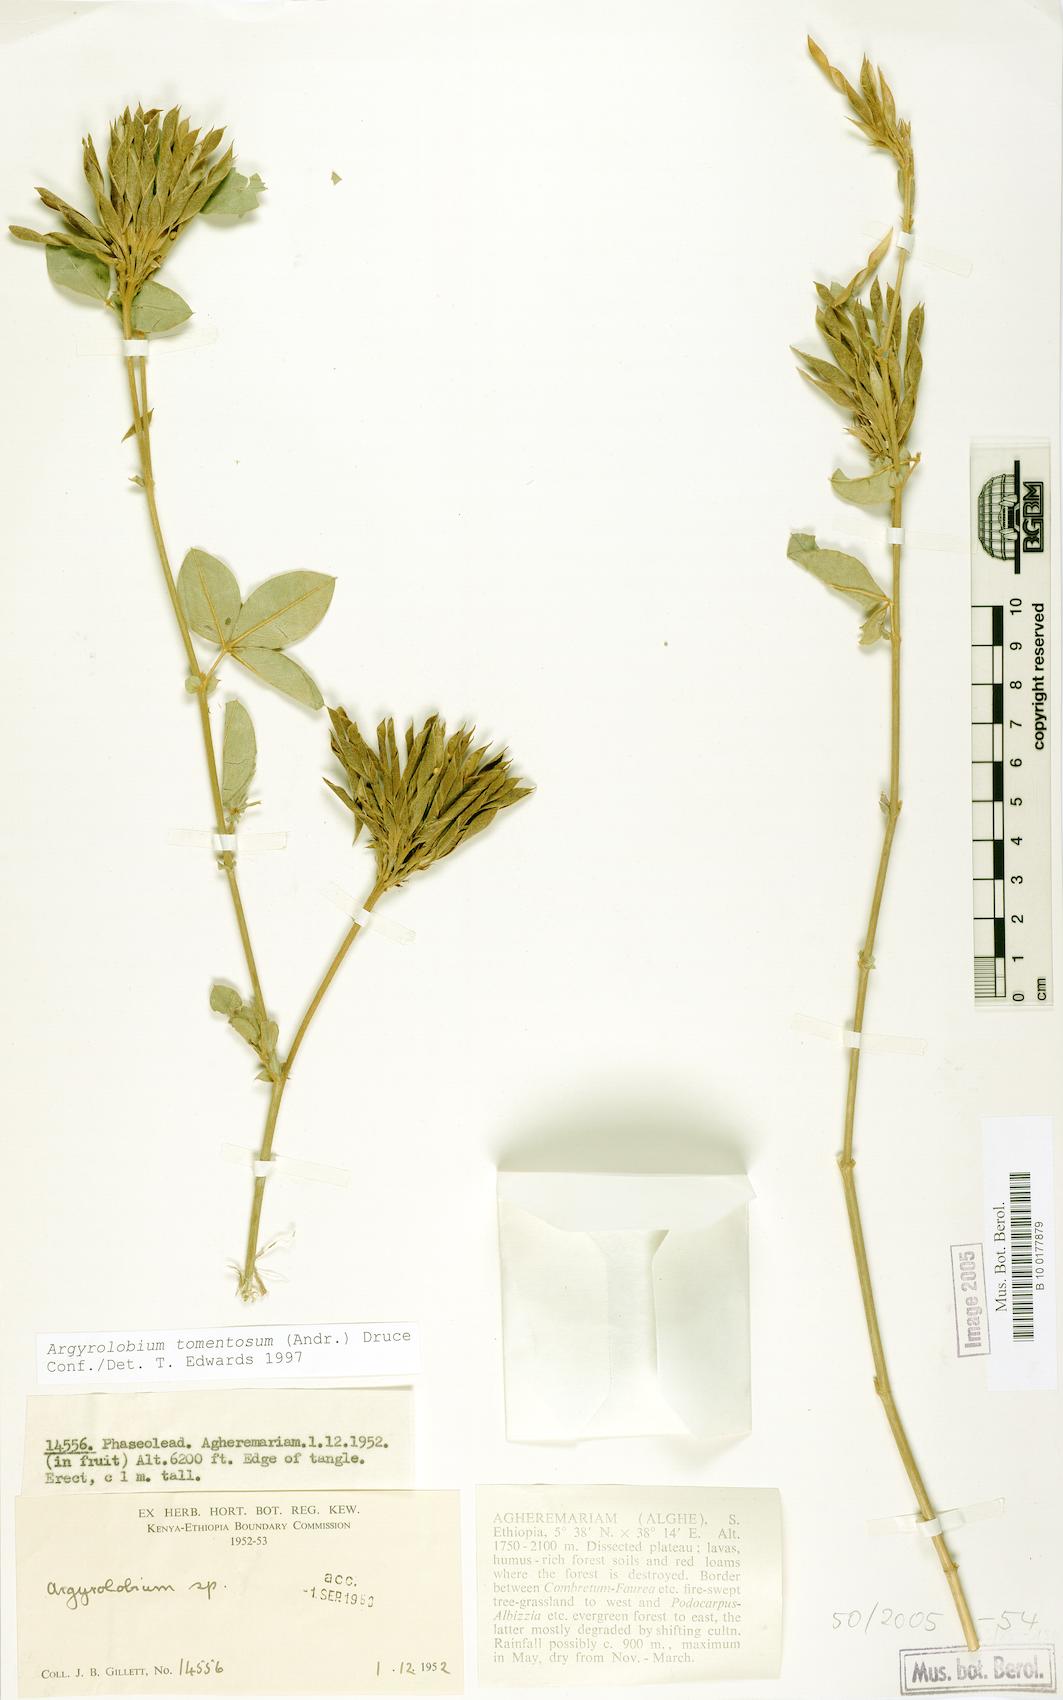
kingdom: Plantae
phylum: Tracheophyta
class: Magnoliopsida
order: Fabales
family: Fabaceae
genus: Argyrolobium
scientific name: Argyrolobium tomentosum
